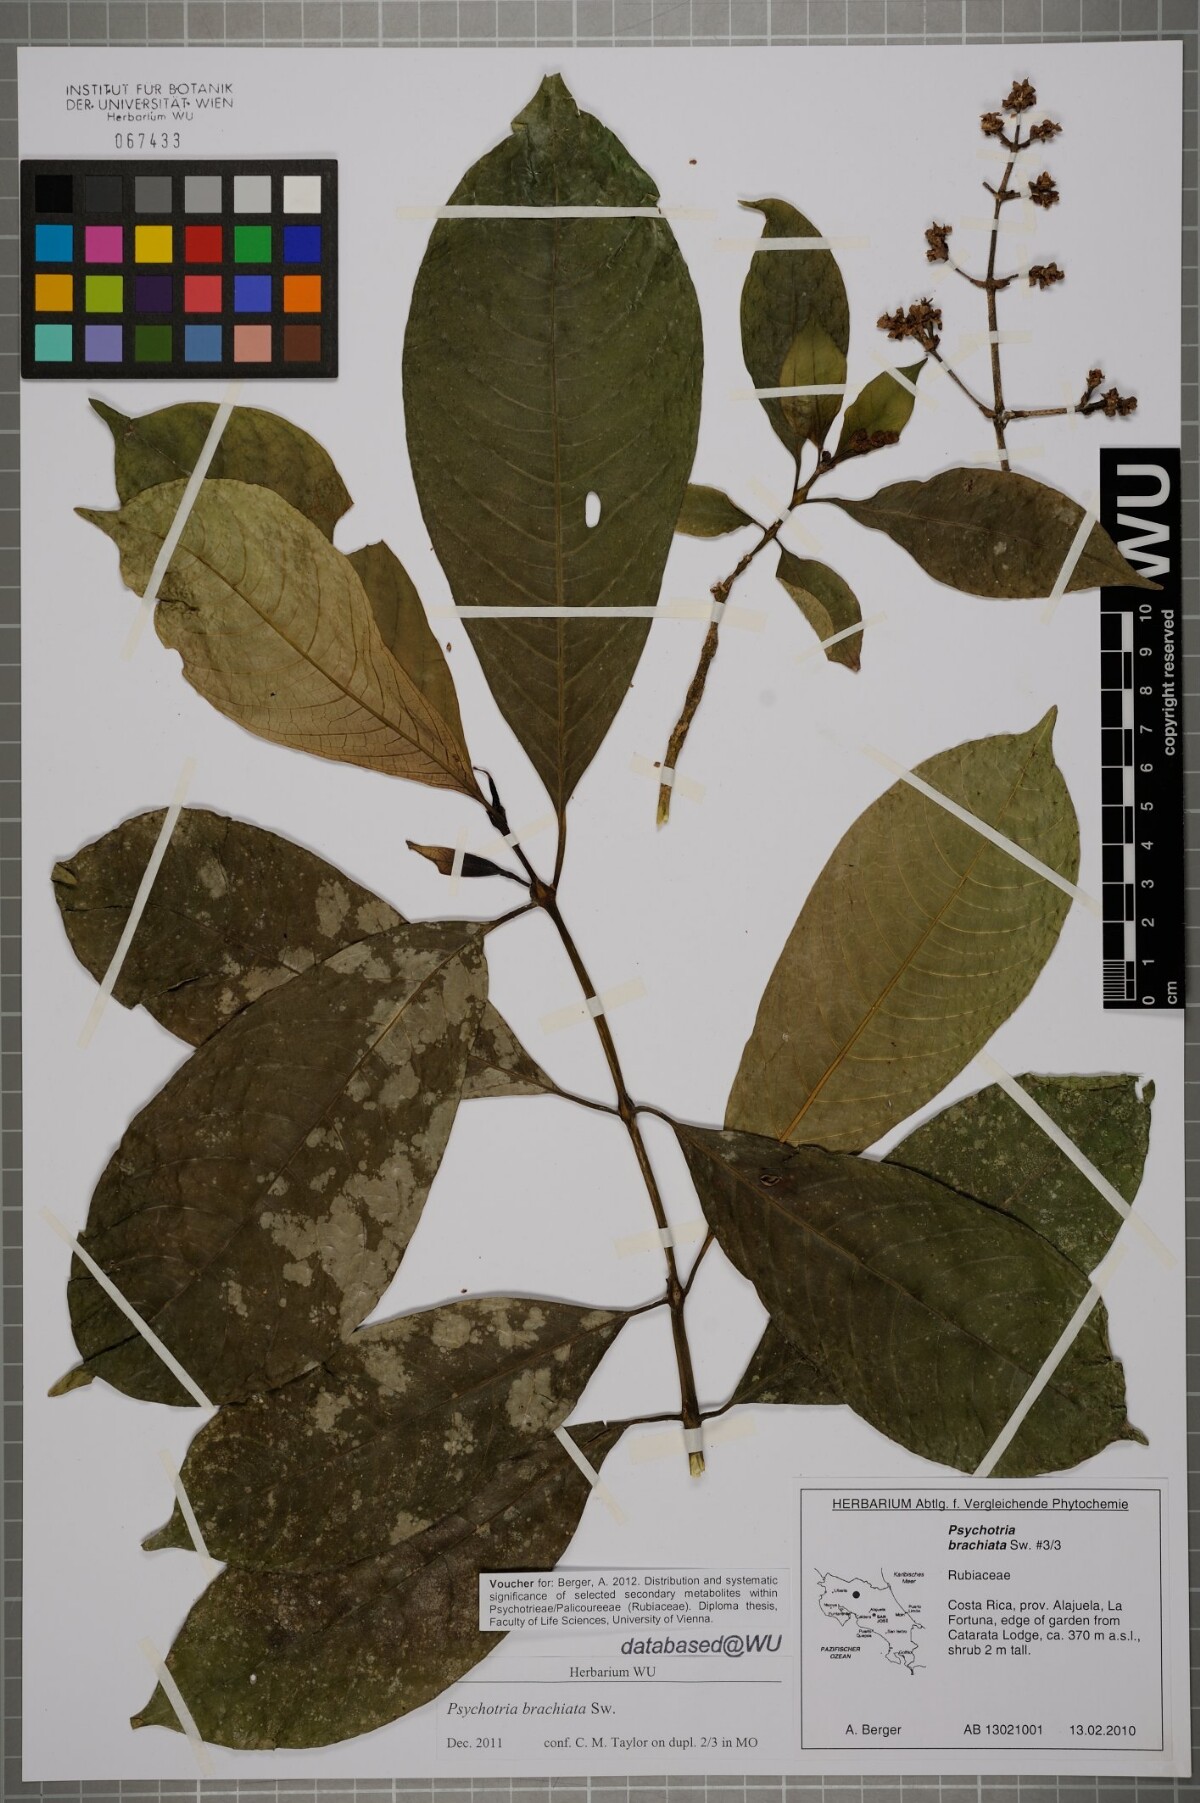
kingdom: Plantae
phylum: Tracheophyta
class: Magnoliopsida
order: Gentianales
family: Rubiaceae
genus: Palicourea
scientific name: Palicourea brachiata
